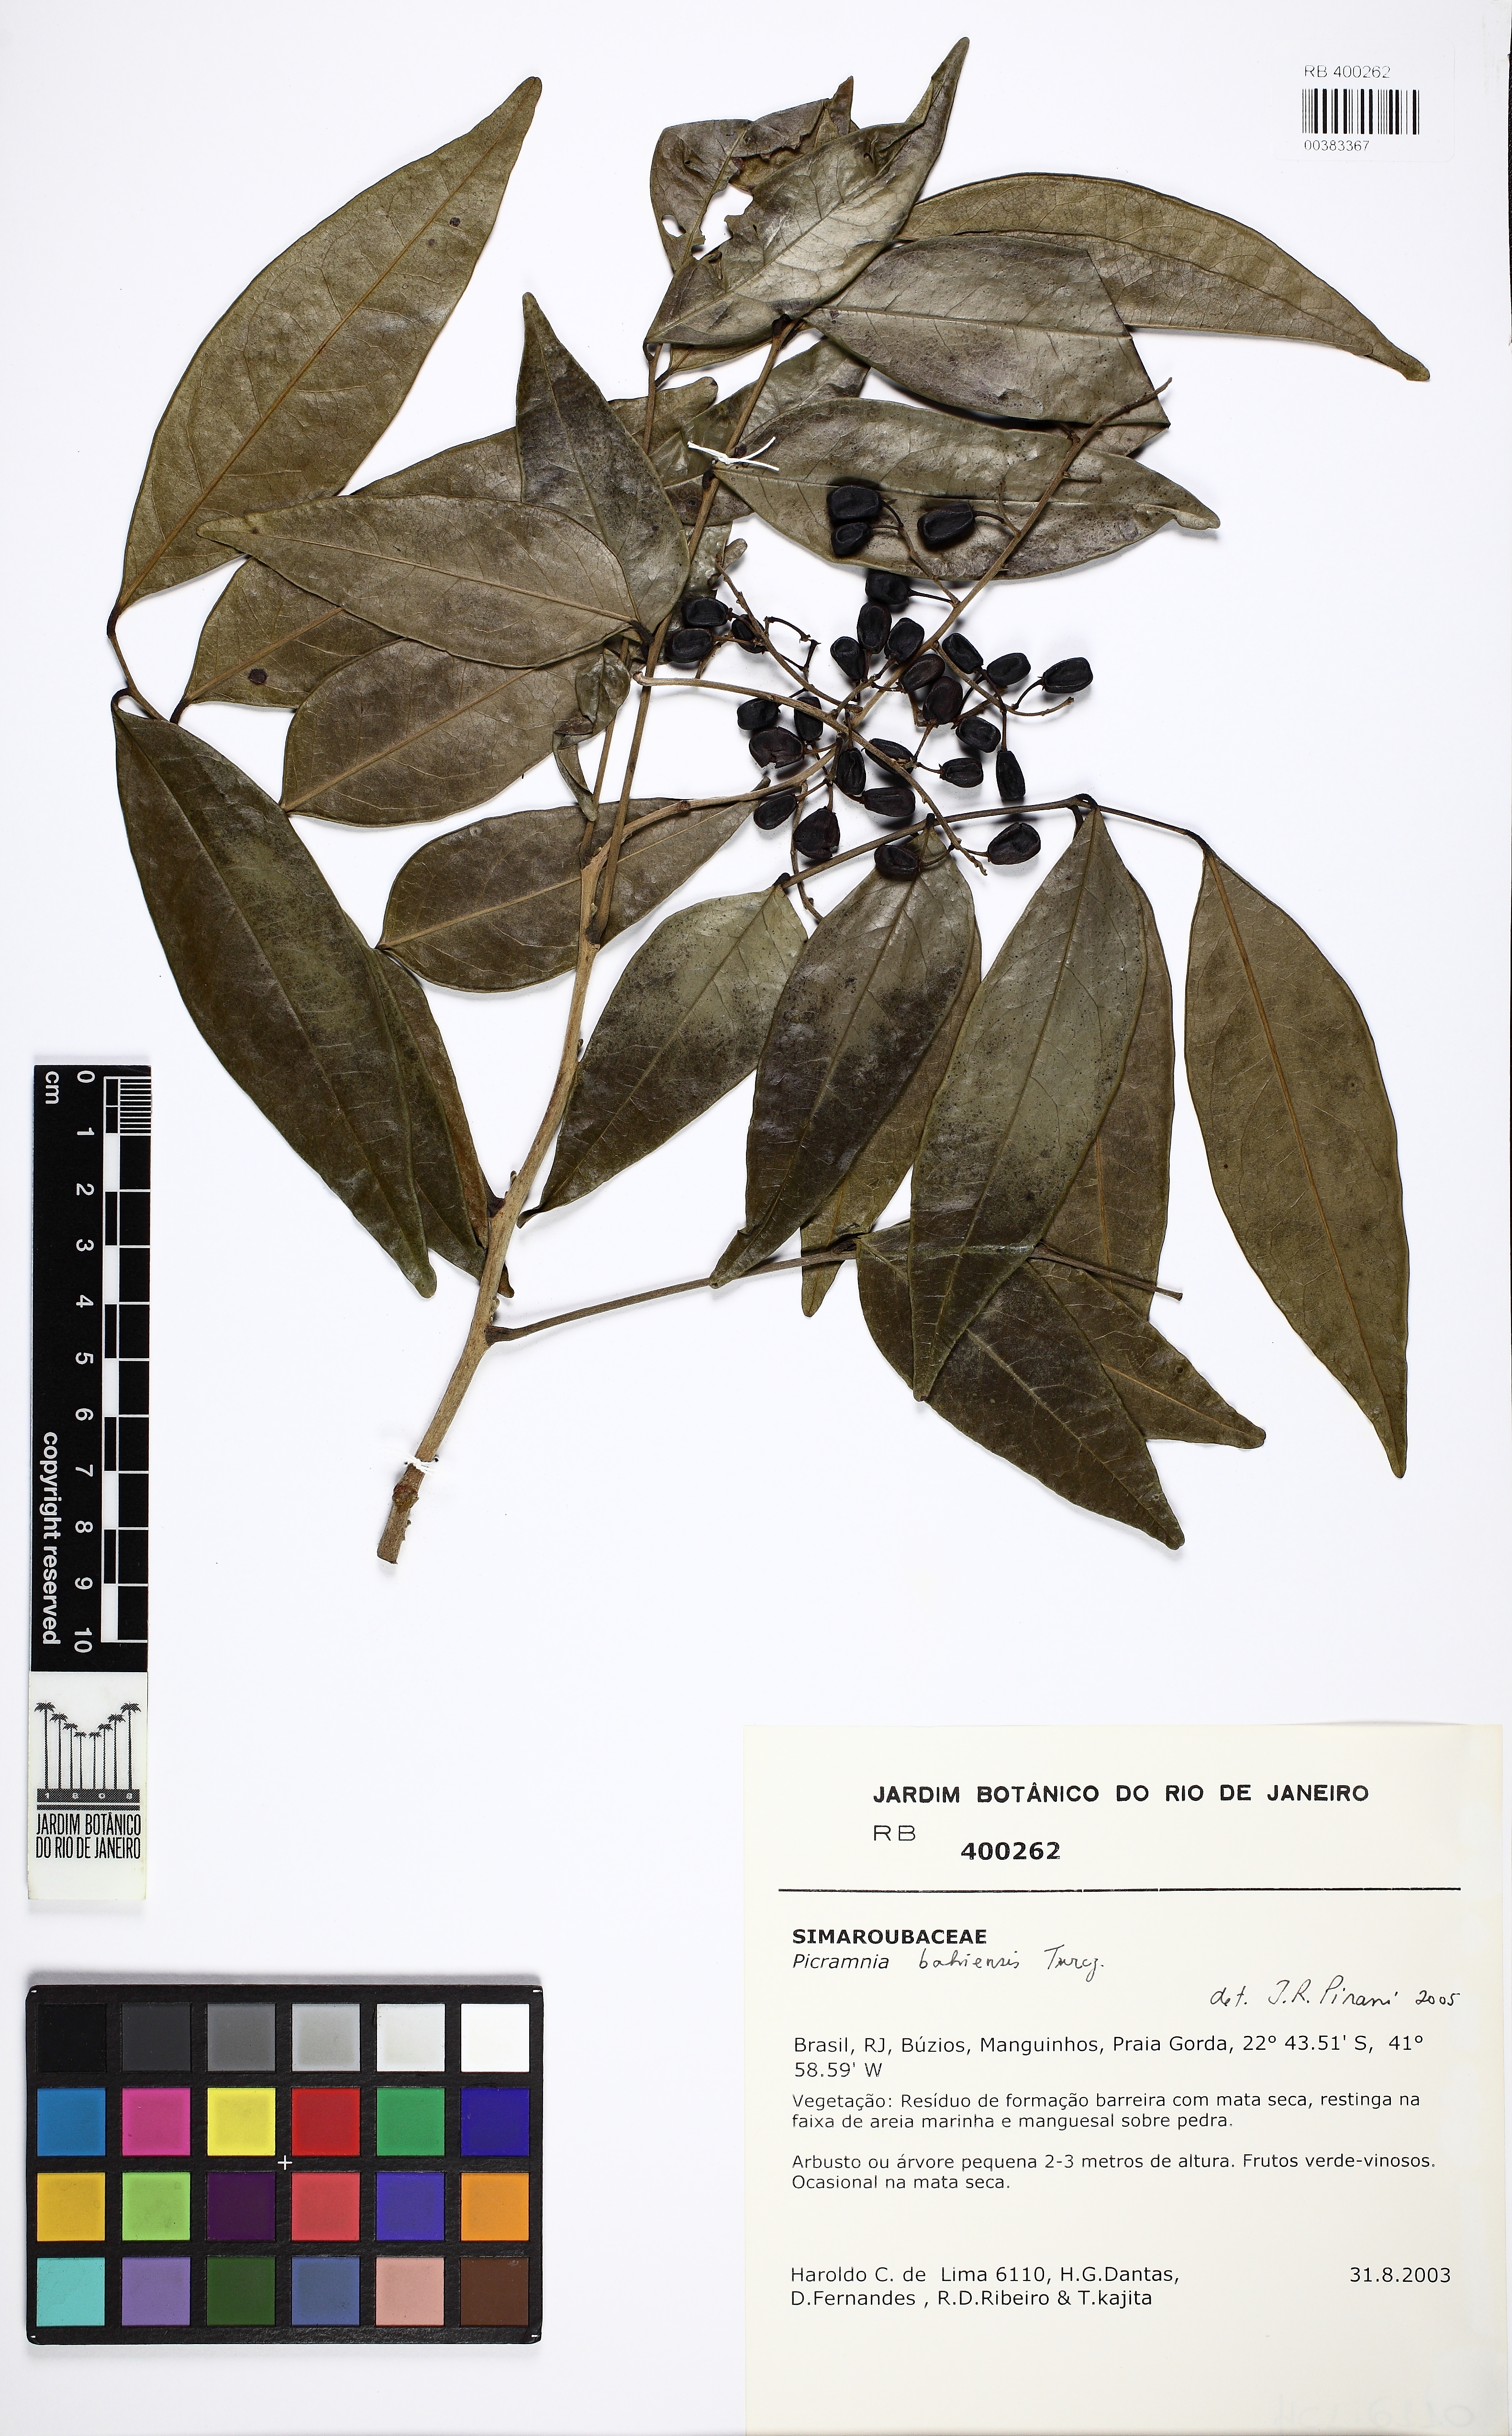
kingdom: Plantae
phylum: Tracheophyta
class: Magnoliopsida
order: Picramniales
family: Picramniaceae
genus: Picramnia
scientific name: Picramnia bahiensis
